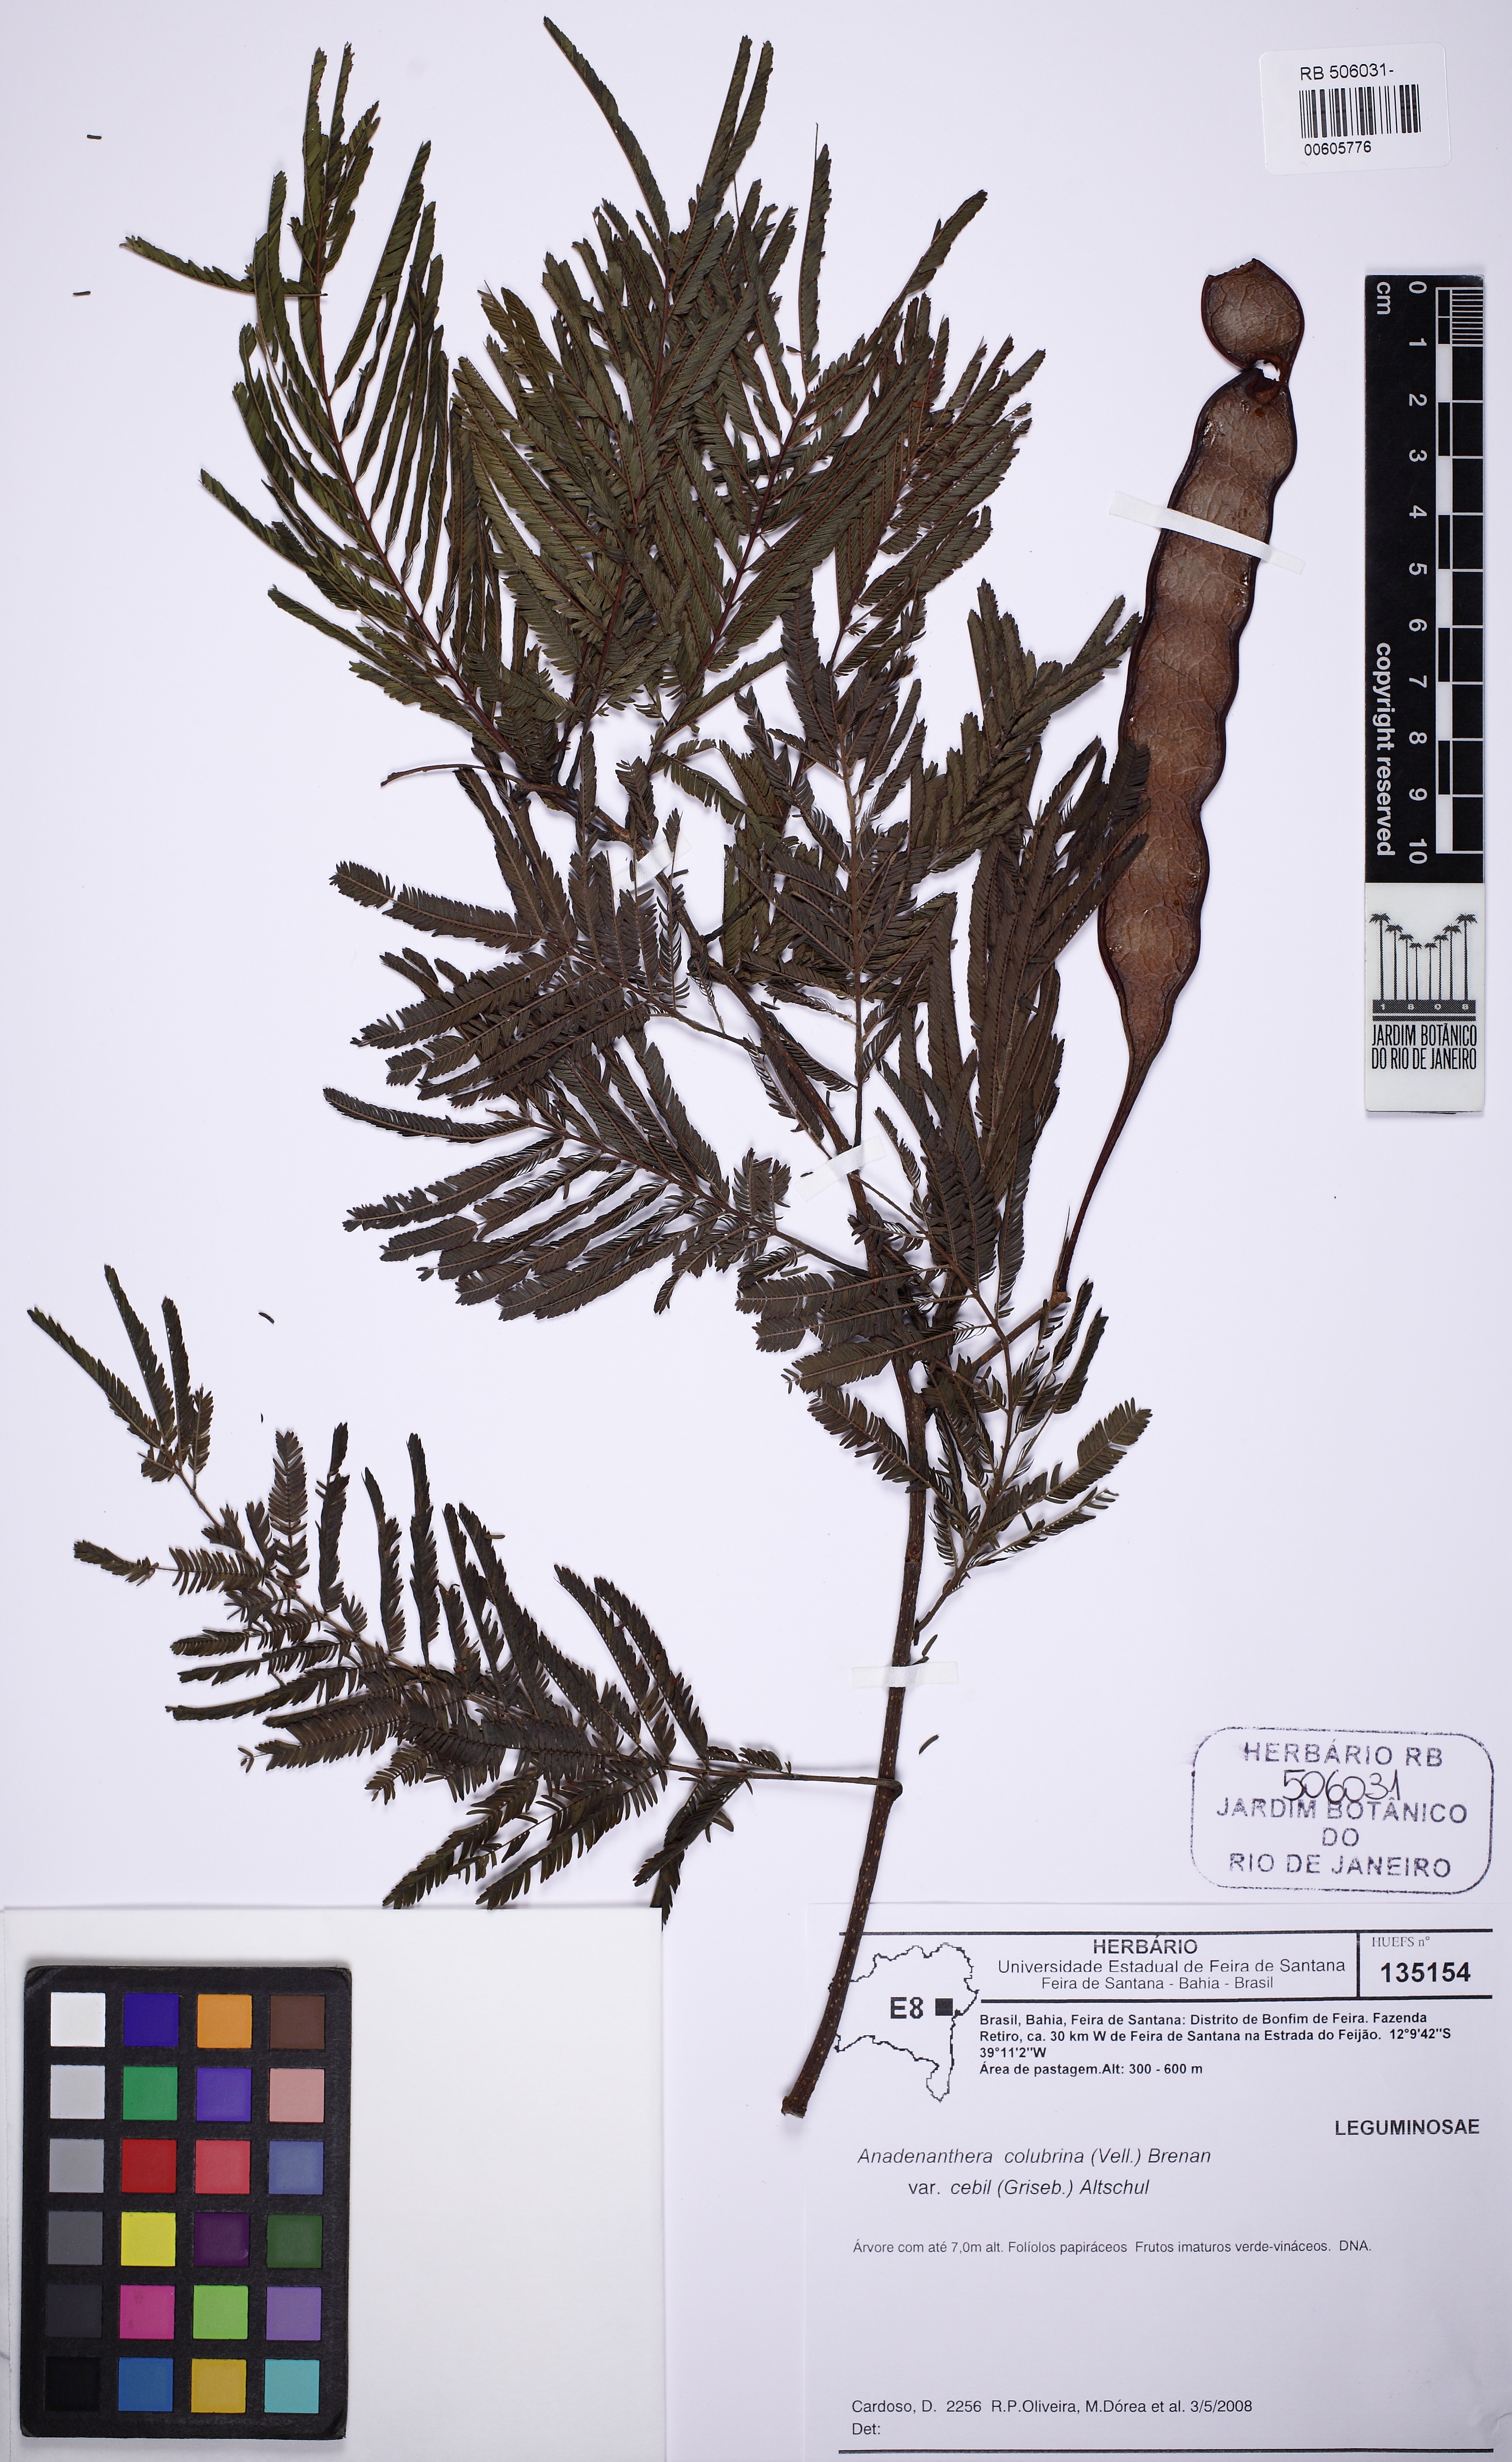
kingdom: Plantae
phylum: Tracheophyta
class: Magnoliopsida
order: Fabales
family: Fabaceae
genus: Anadenanthera
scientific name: Anadenanthera colubrina
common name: Curupay
